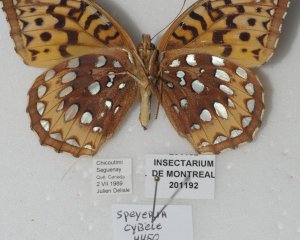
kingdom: Animalia
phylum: Arthropoda
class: Insecta
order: Lepidoptera
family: Nymphalidae
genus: Speyeria
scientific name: Speyeria cybele
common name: Great Spangled Fritillary
